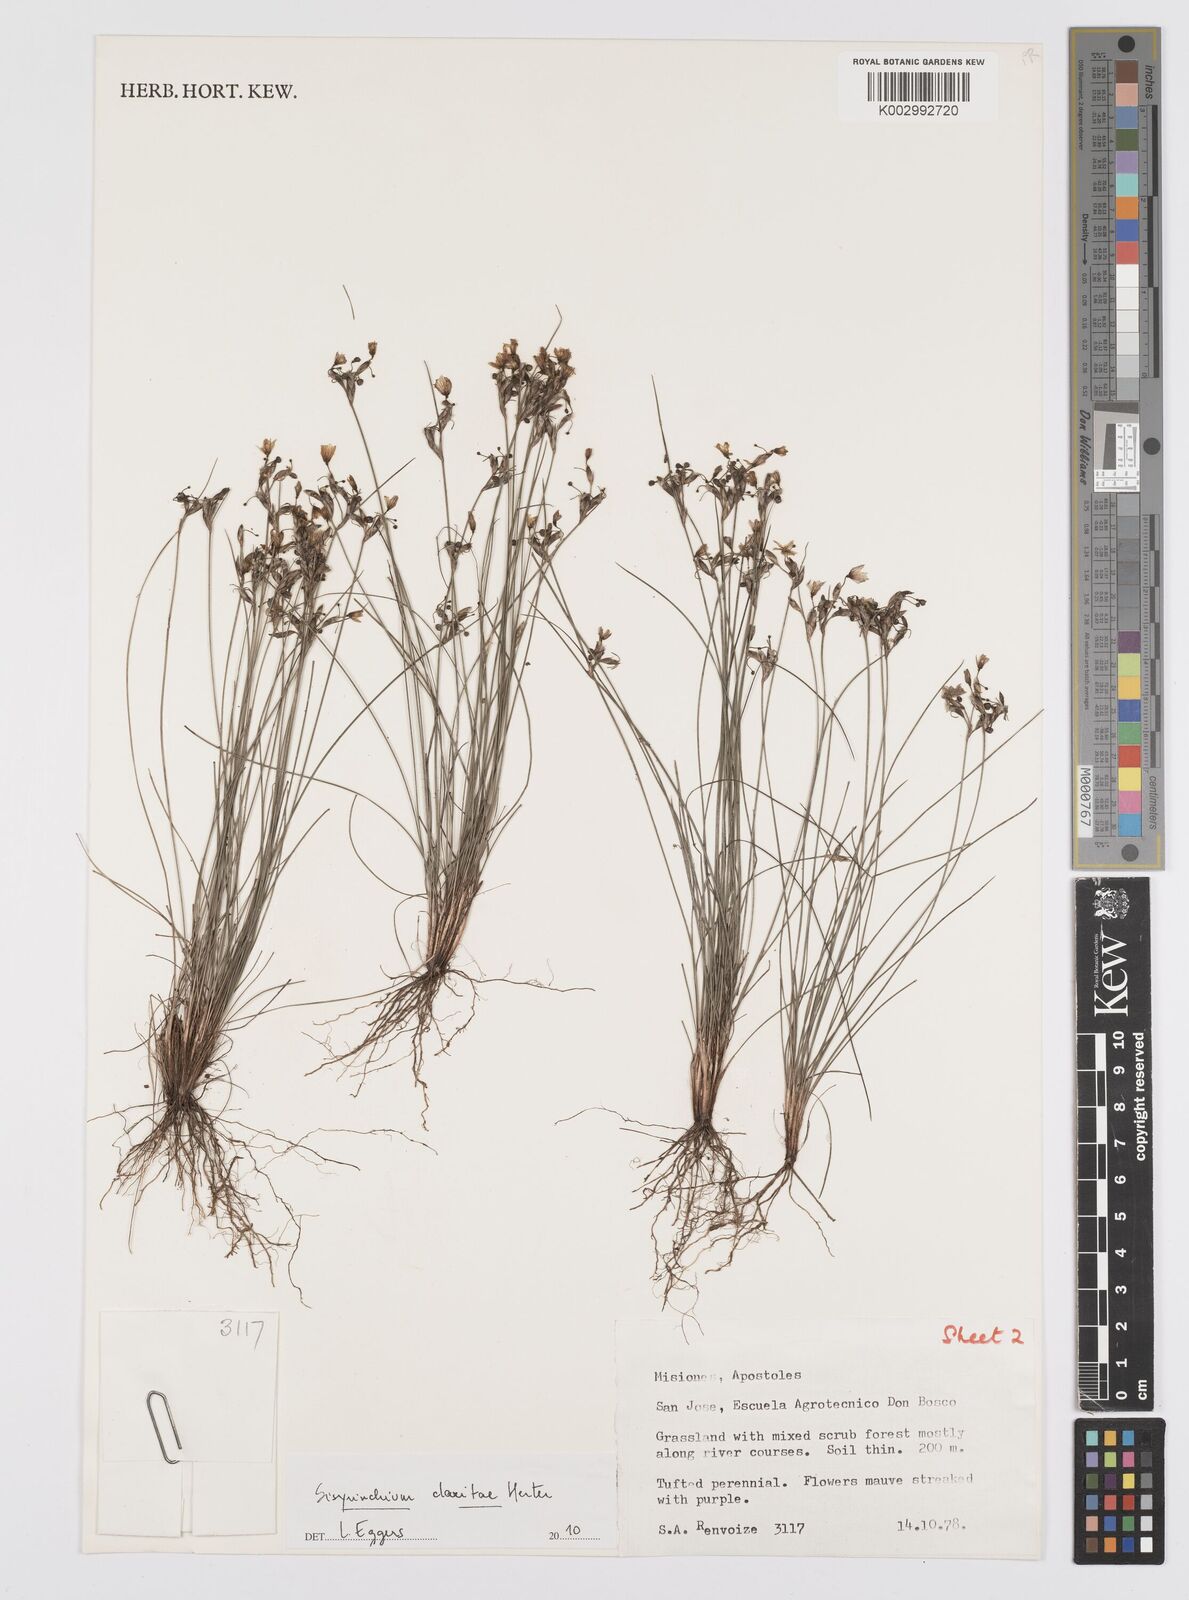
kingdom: Plantae
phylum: Tracheophyta
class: Liliopsida
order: Asparagales
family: Iridaceae
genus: Sisyrinchium
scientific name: Sisyrinchium commutatum
